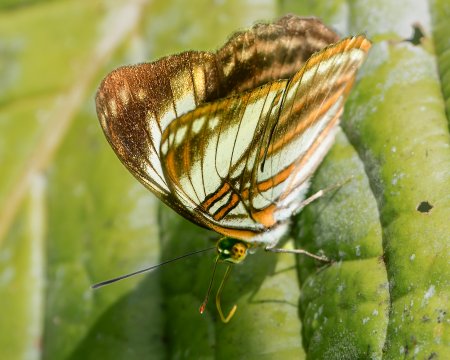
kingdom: Animalia
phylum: Arthropoda
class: Insecta
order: Lepidoptera
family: Nymphalidae
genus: Limenitis
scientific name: Limenitis ethelda
